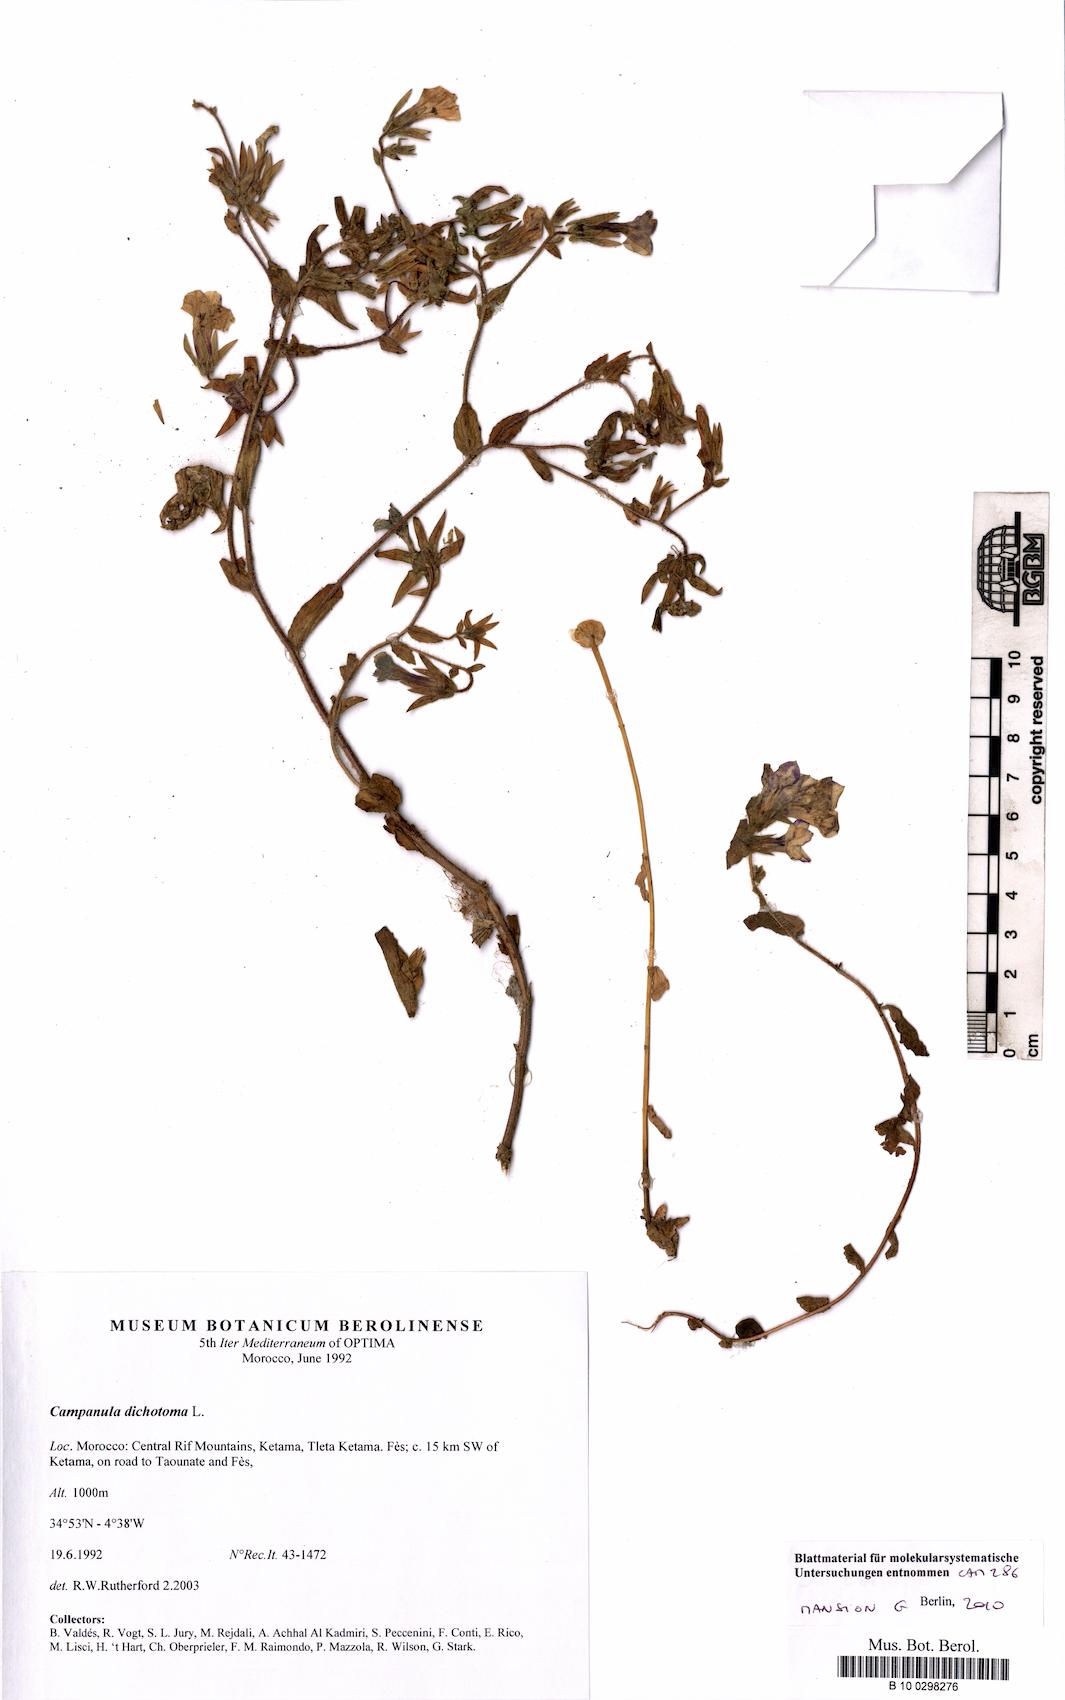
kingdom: Plantae
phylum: Tracheophyta
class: Magnoliopsida
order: Asterales
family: Campanulaceae
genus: Campanula
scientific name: Campanula dichotoma
